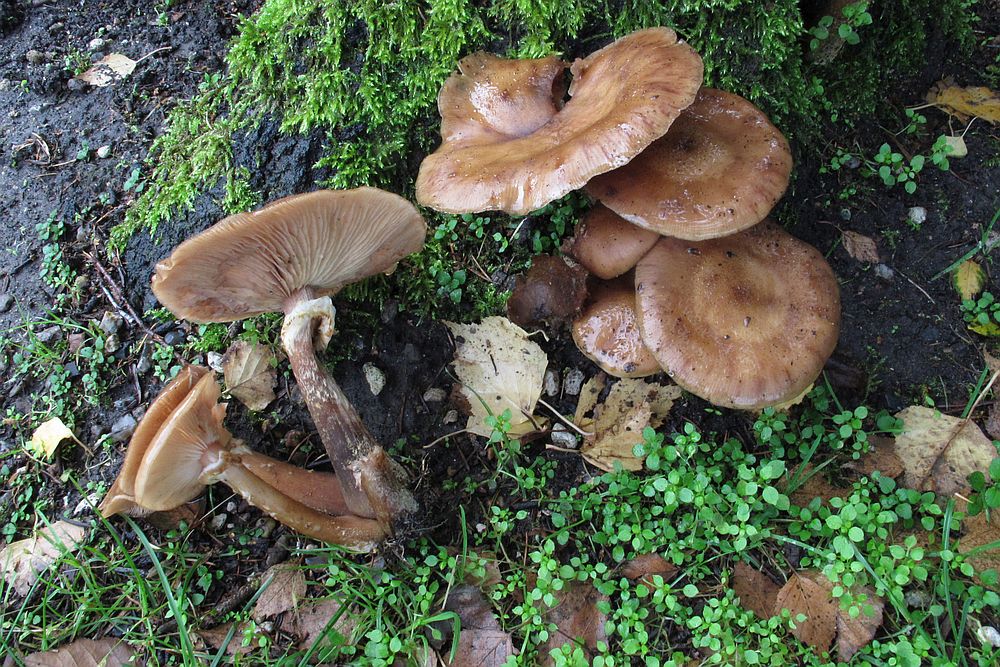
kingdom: Fungi
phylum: Basidiomycota
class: Agaricomycetes
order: Agaricales
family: Physalacriaceae
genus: Armillaria
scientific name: Armillaria lutea
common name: køllestokket honningsvamp
